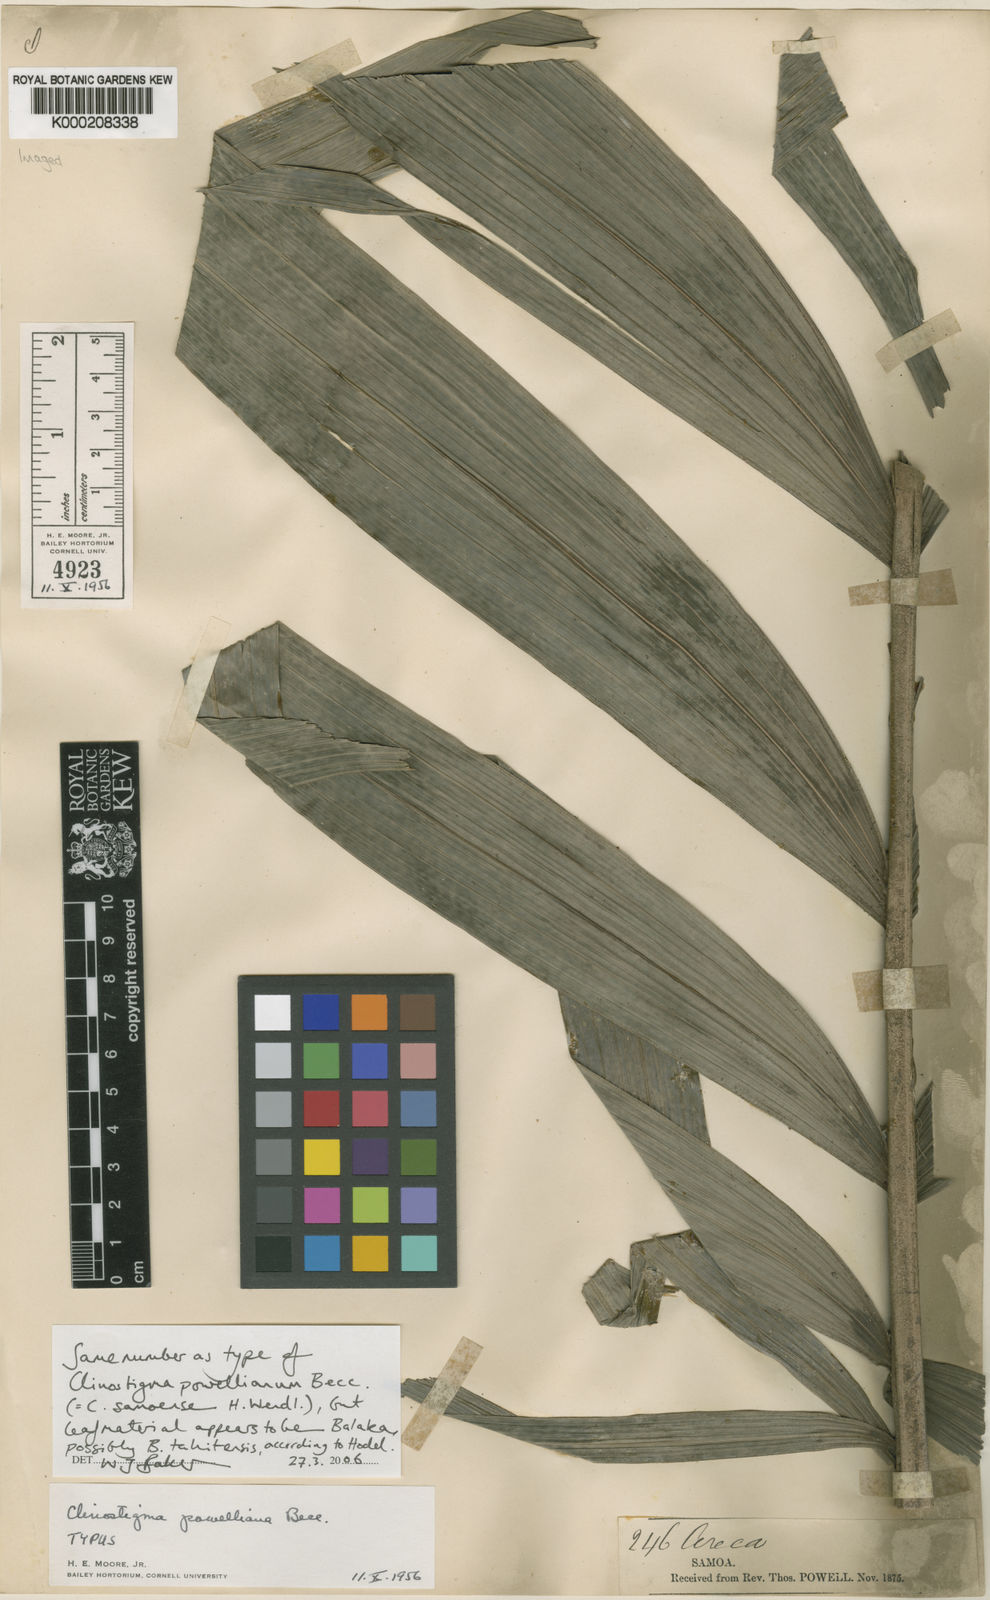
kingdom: Plantae
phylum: Tracheophyta
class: Liliopsida
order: Arecales
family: Arecaceae
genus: Balaka
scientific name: Balaka tahitensis
